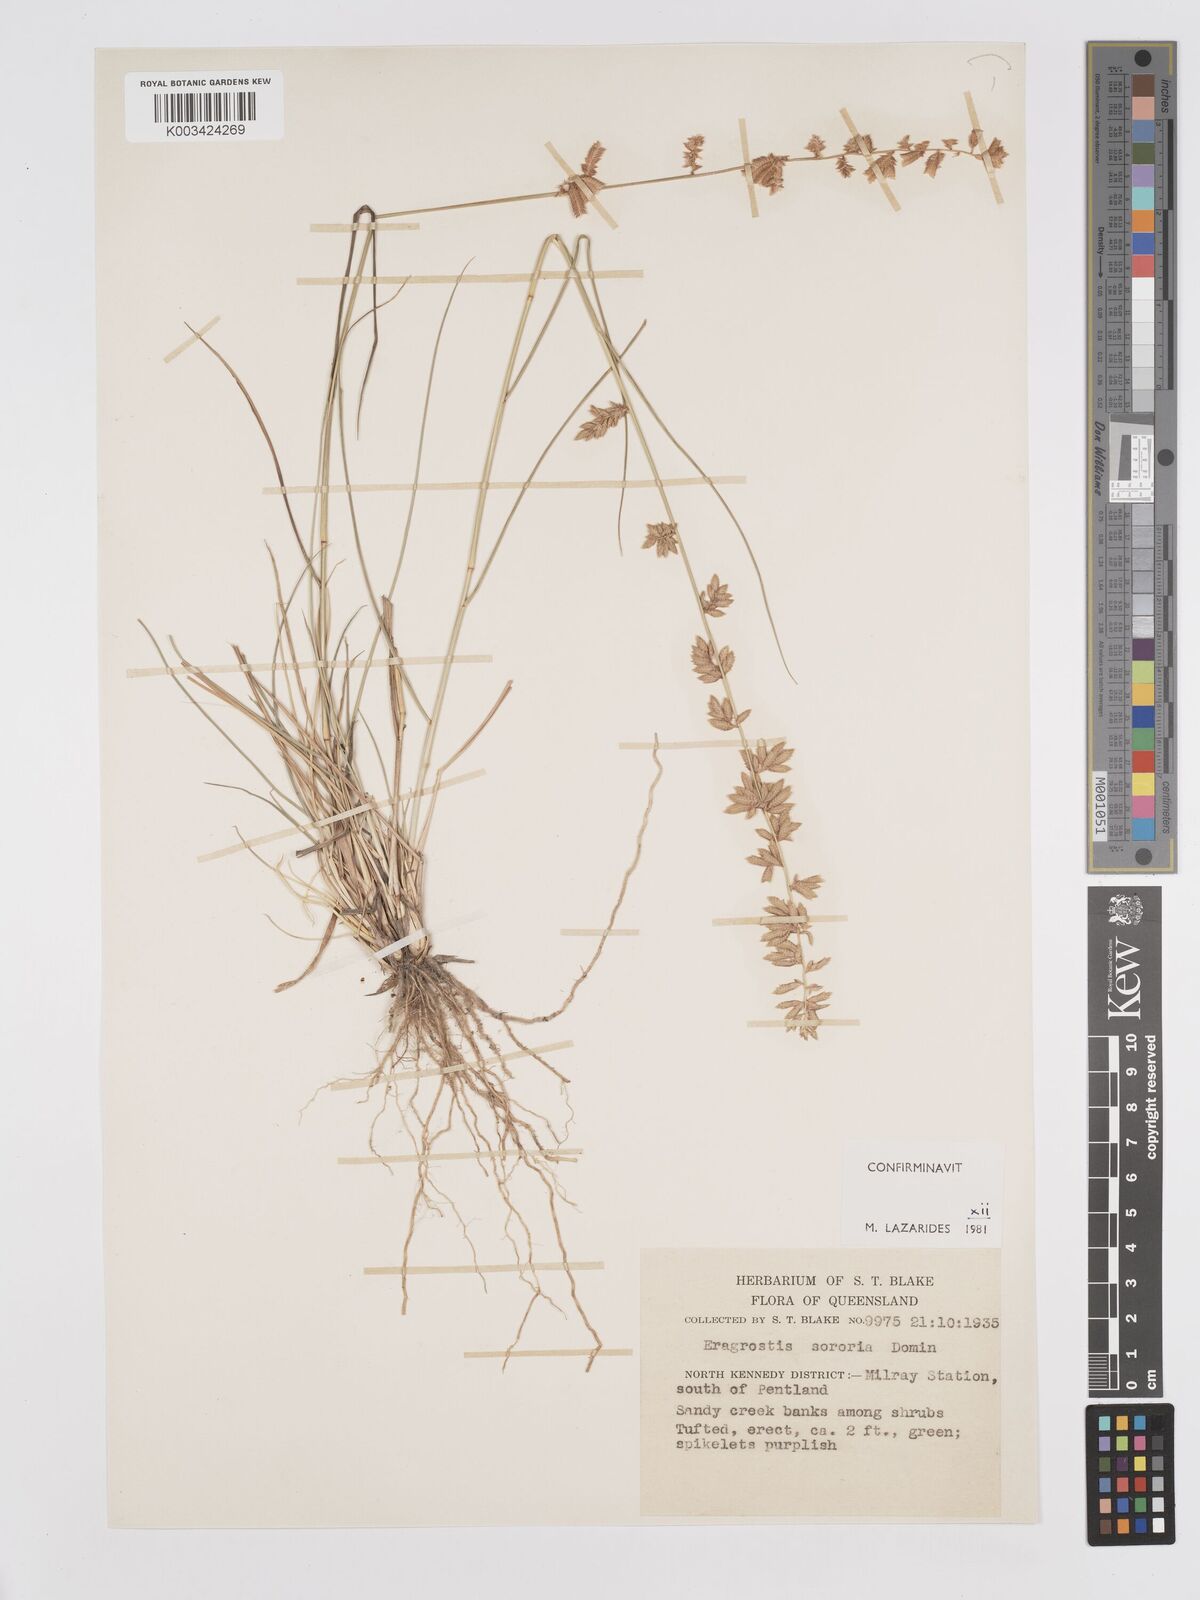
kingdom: Plantae
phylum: Tracheophyta
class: Liliopsida
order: Poales
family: Poaceae
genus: Eragrostis
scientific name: Eragrostis sororia
